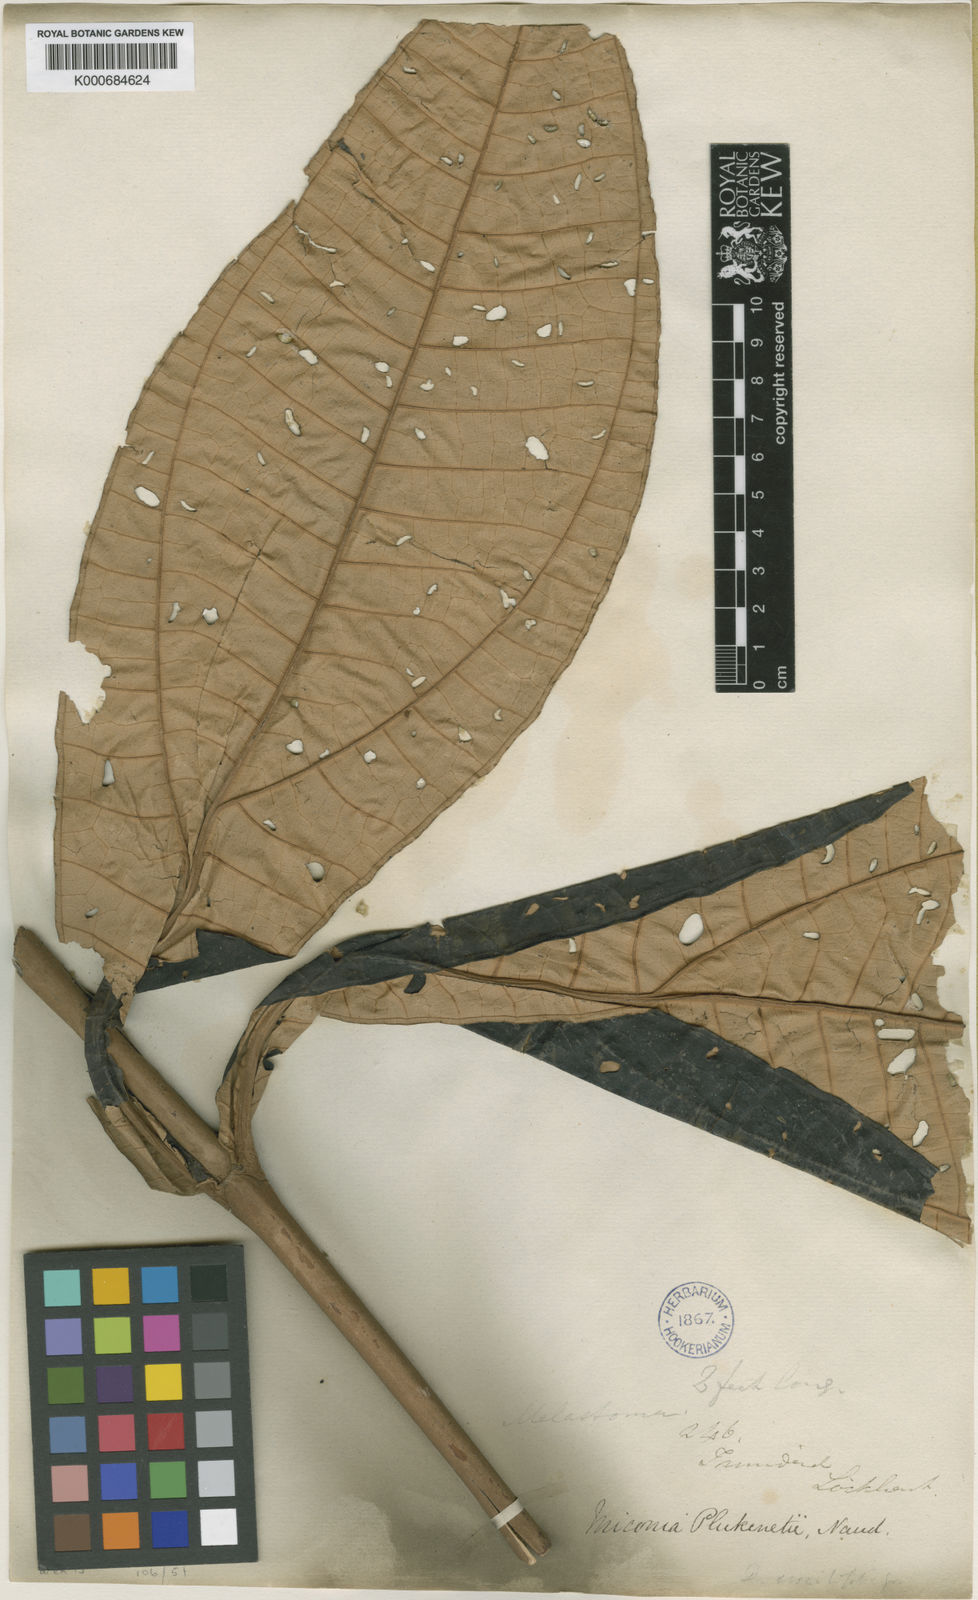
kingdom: Plantae
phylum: Tracheophyta
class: Magnoliopsida
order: Myrtales
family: Melastomataceae
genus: Miconia
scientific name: Miconia plukenetii
